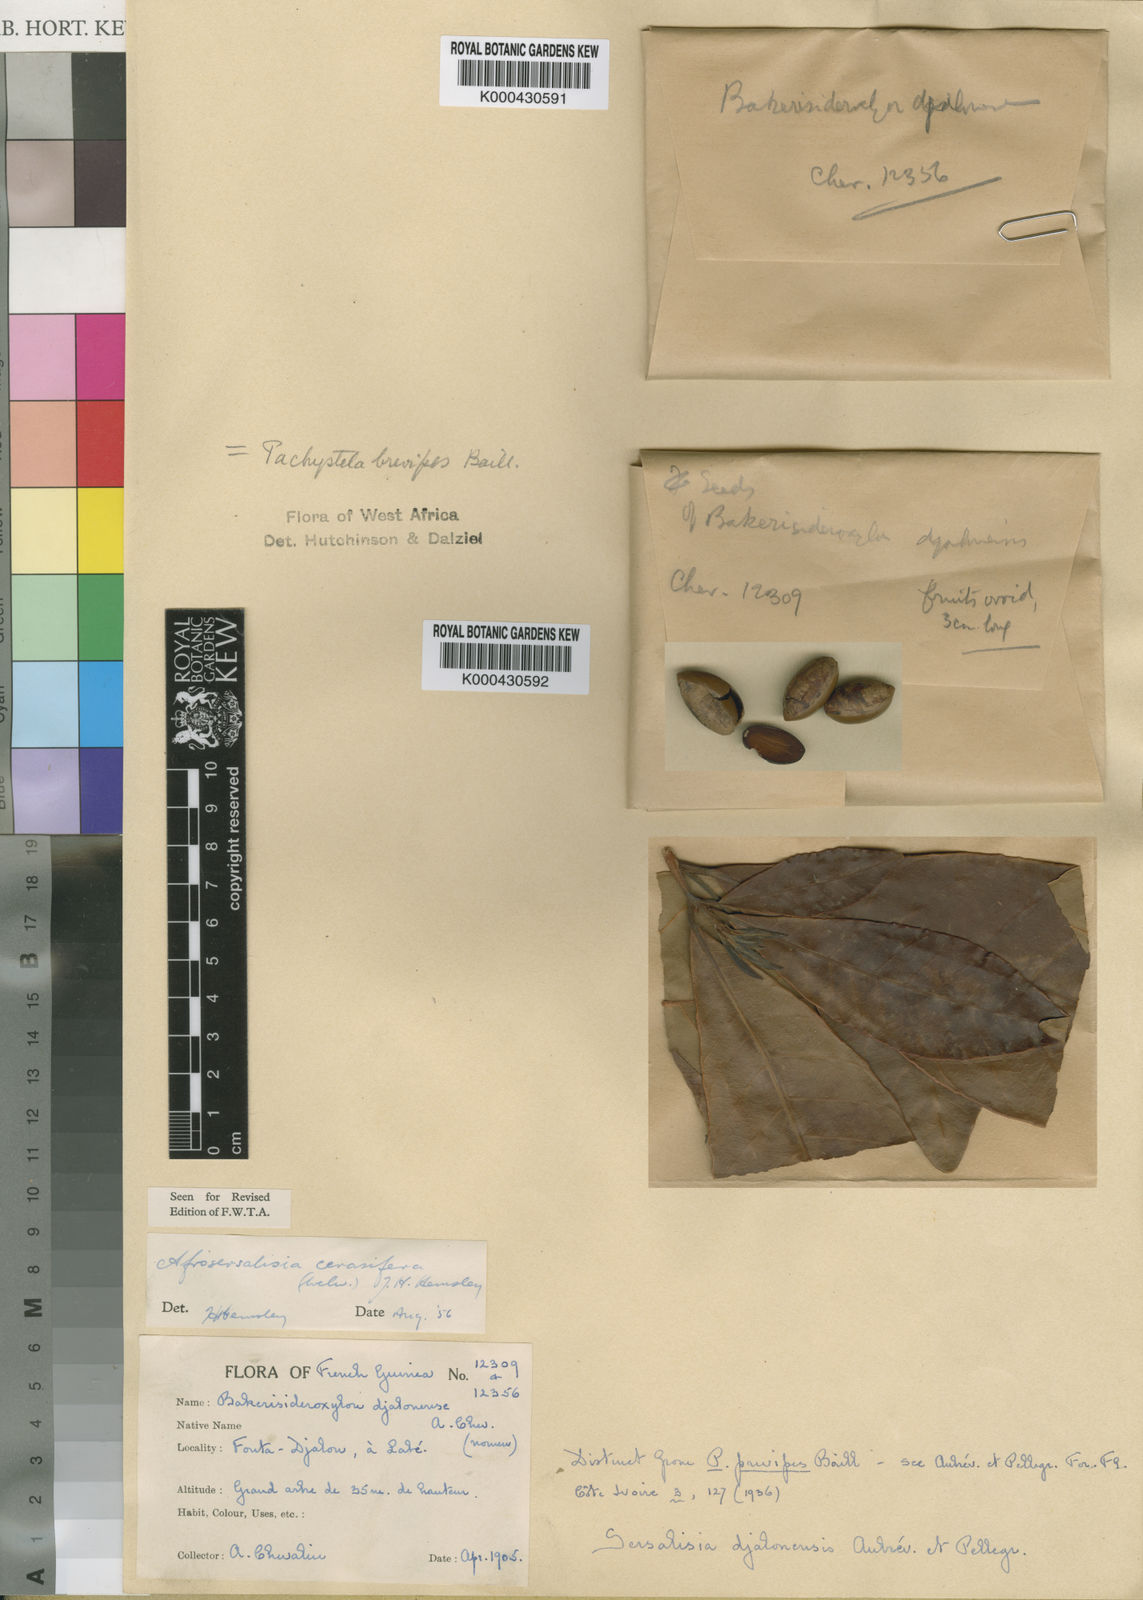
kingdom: Plantae
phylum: Tracheophyta
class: Magnoliopsida
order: Ericales
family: Sapotaceae
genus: Synsepalum
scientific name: Synsepalum cerasiferum
